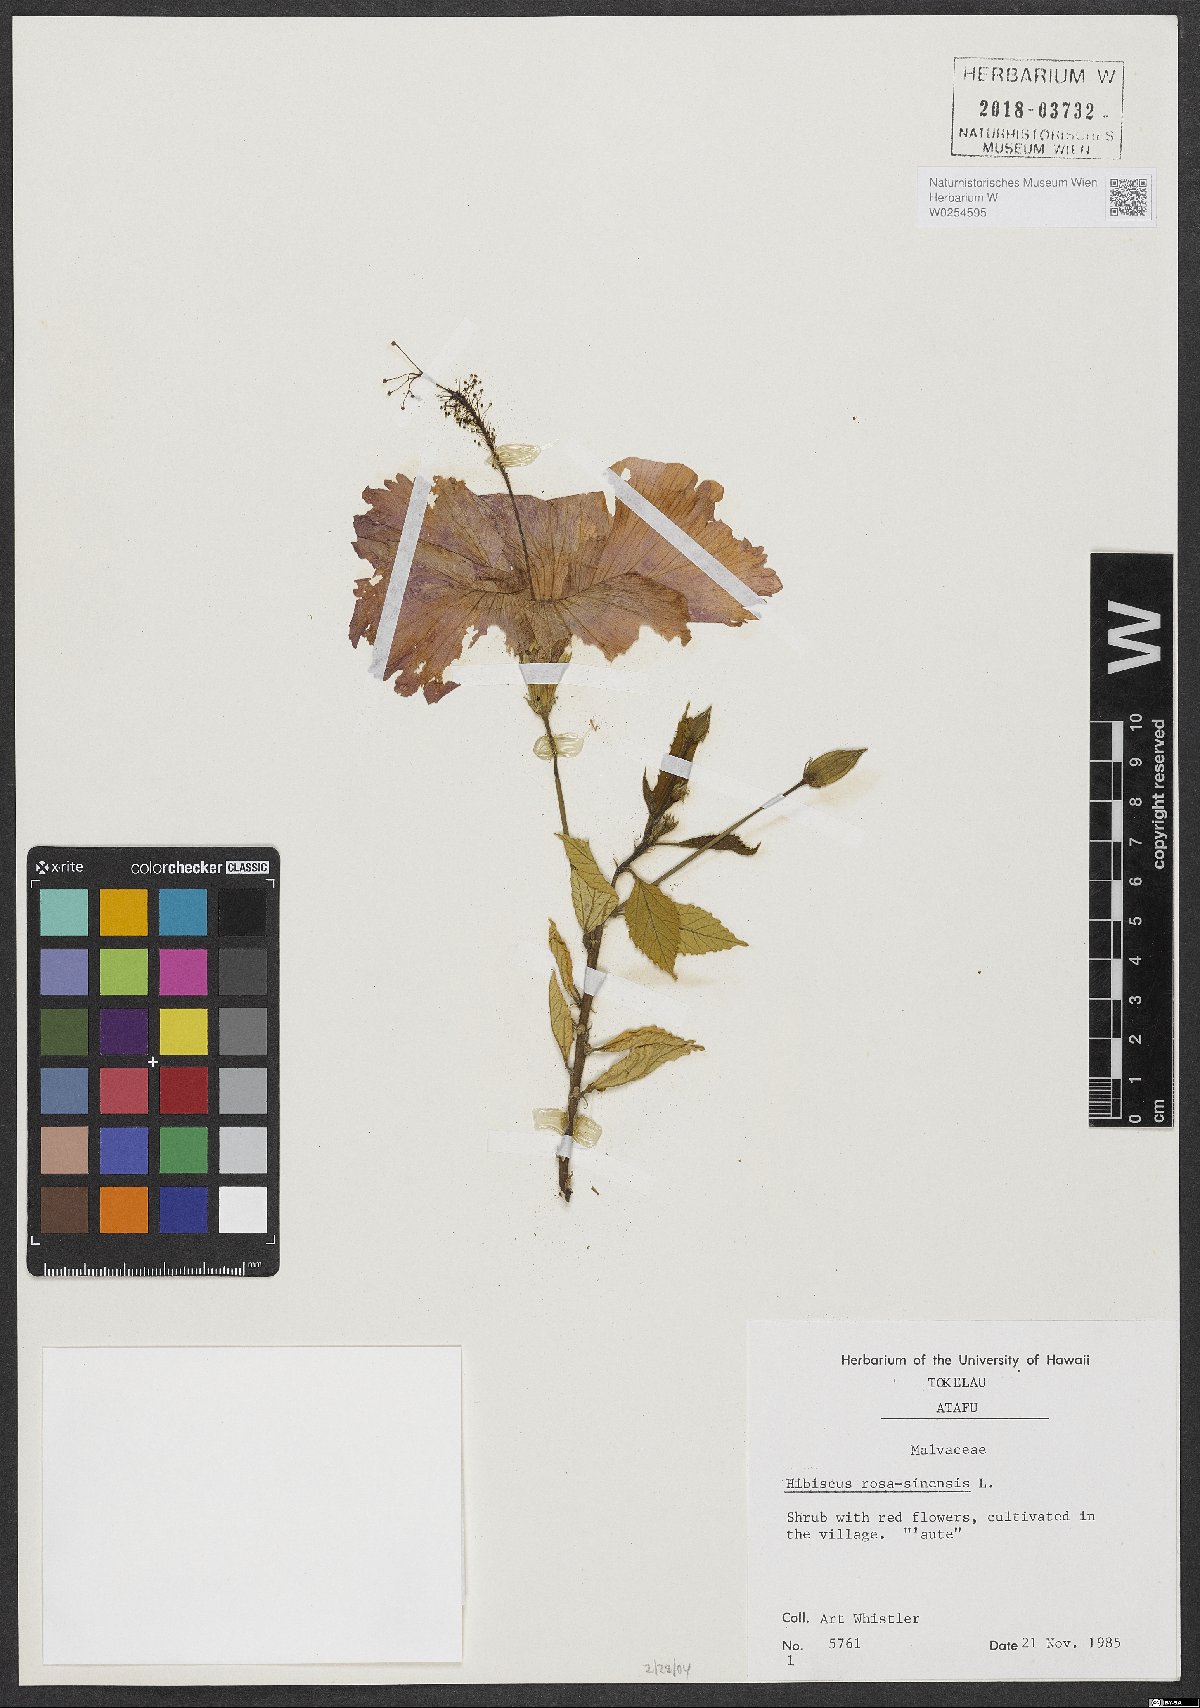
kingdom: Plantae
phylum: Tracheophyta
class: Magnoliopsida
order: Malvales
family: Malvaceae
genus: Hibiscus
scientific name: Hibiscus rosa-sinensis
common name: Hibiscus
